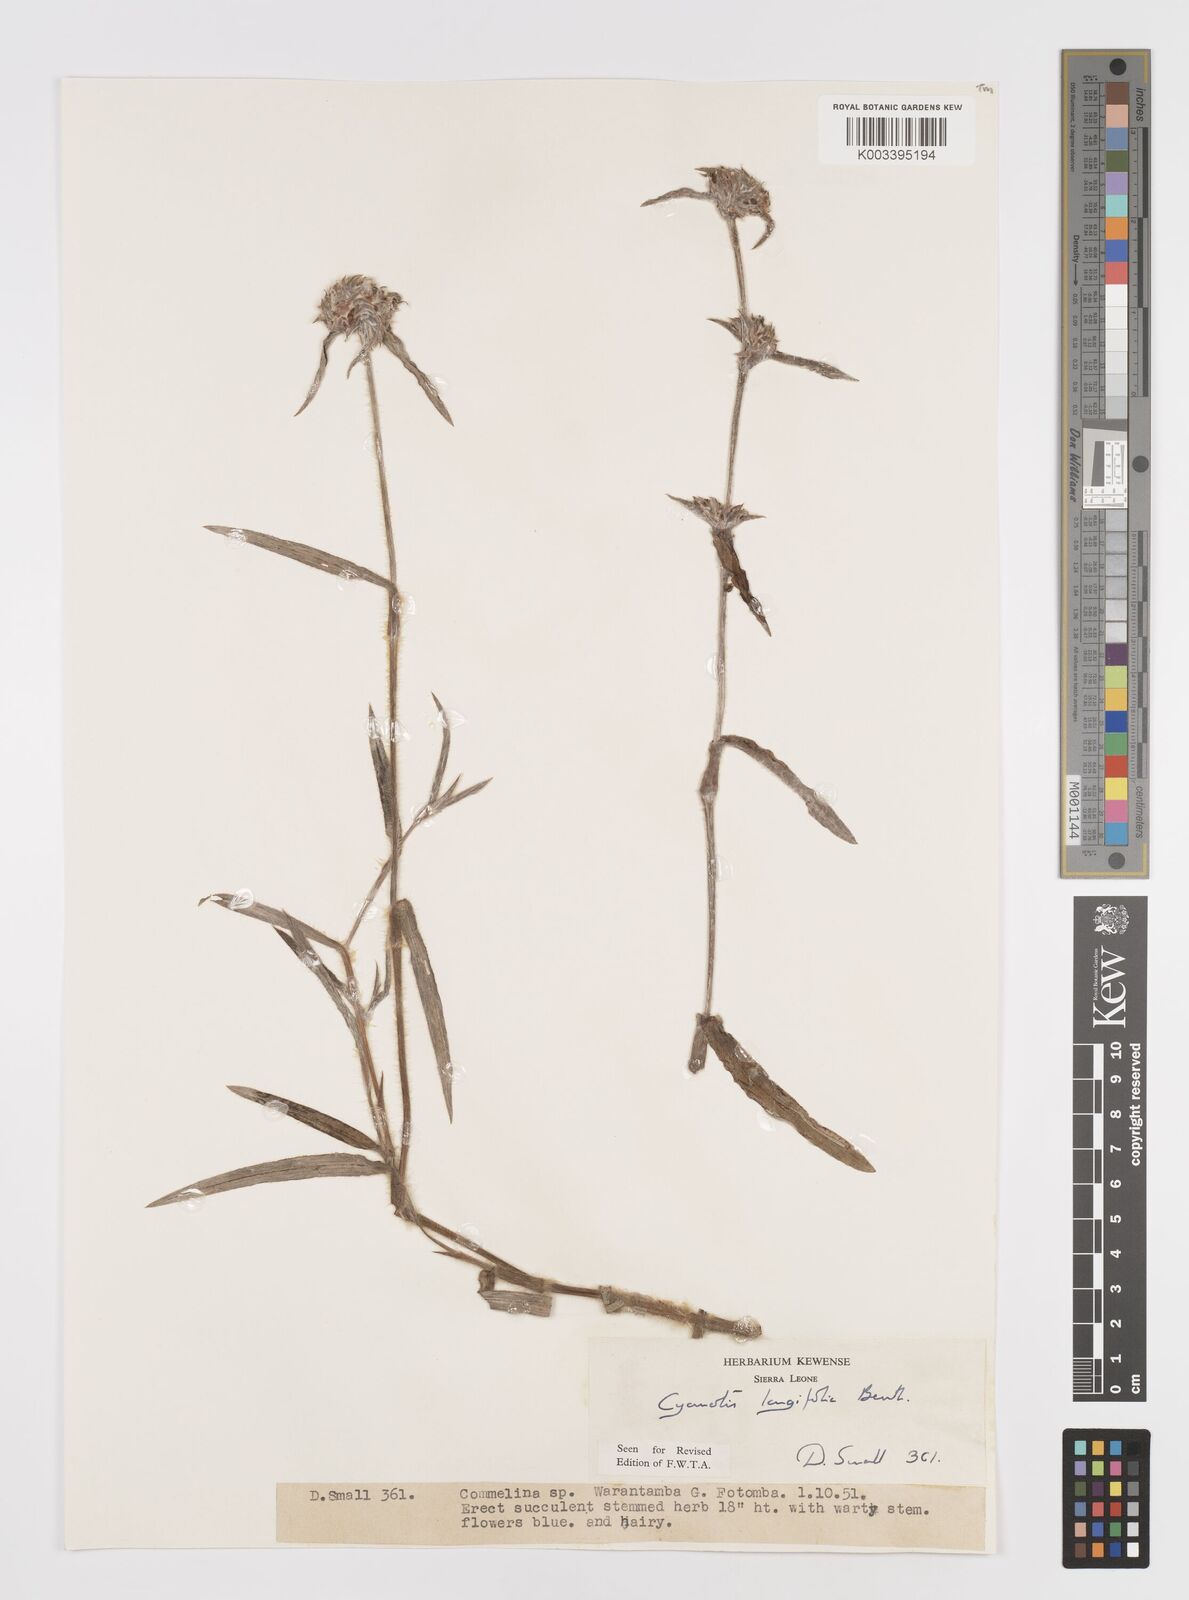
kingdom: Plantae
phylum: Tracheophyta
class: Liliopsida
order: Commelinales
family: Commelinaceae
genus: Cyanotis
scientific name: Cyanotis
